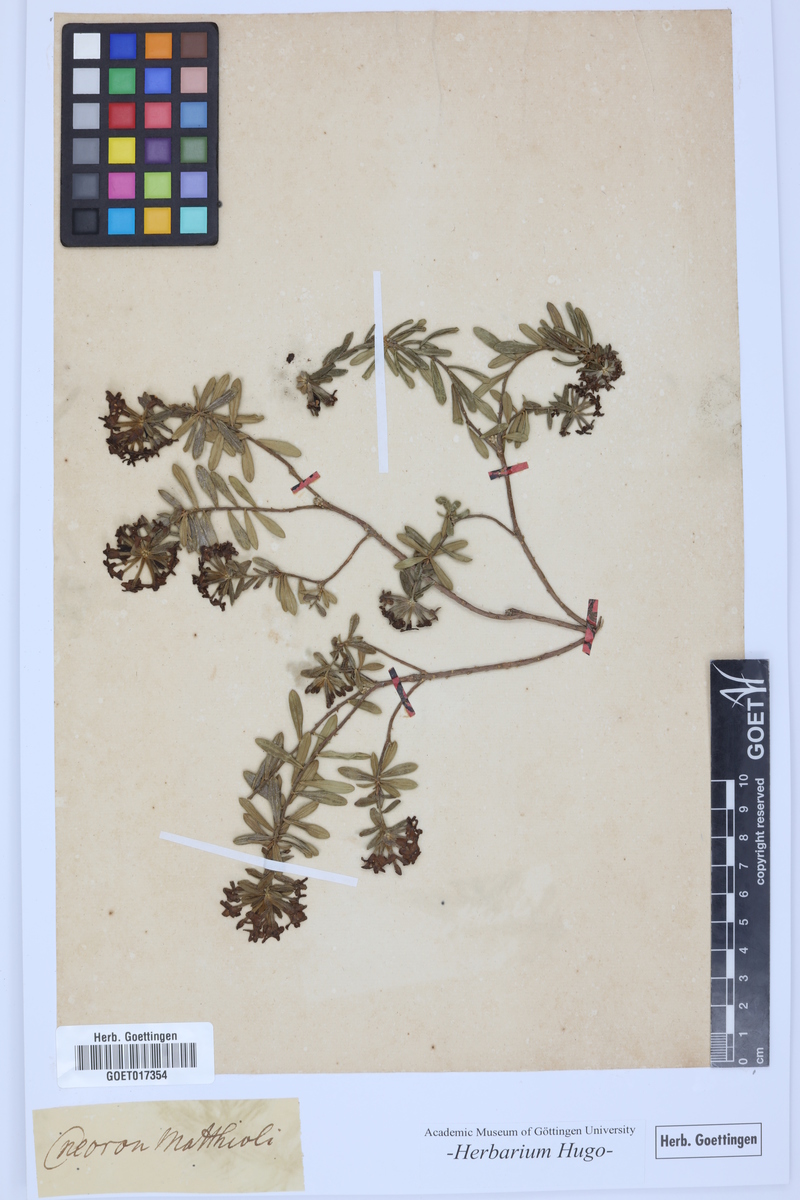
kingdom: Plantae
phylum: Tracheophyta
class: Magnoliopsida
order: Malvales
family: Thymelaeaceae
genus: Daphne
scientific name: Daphne cneorum
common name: Garland-flower
